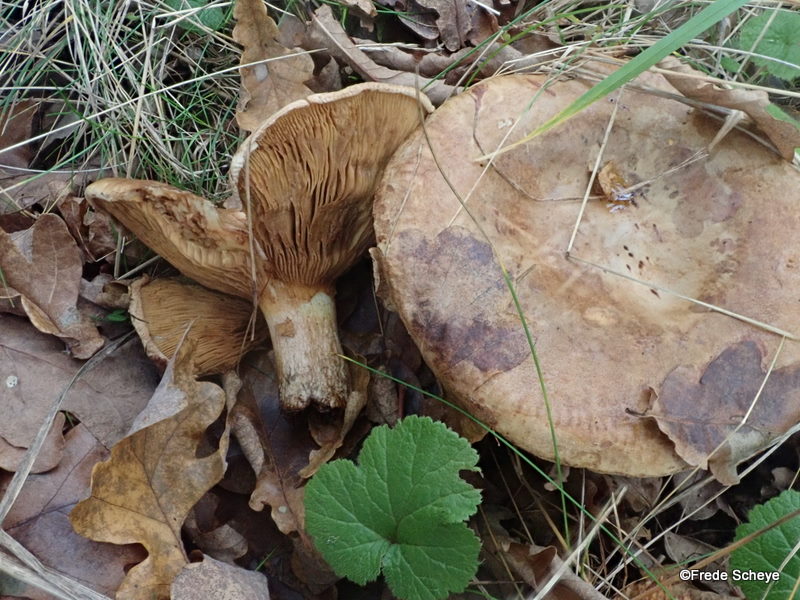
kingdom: Fungi
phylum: Basidiomycota
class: Agaricomycetes
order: Boletales
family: Paxillaceae
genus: Paxillus
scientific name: Paxillus involutus
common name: almindelig netbladhat
